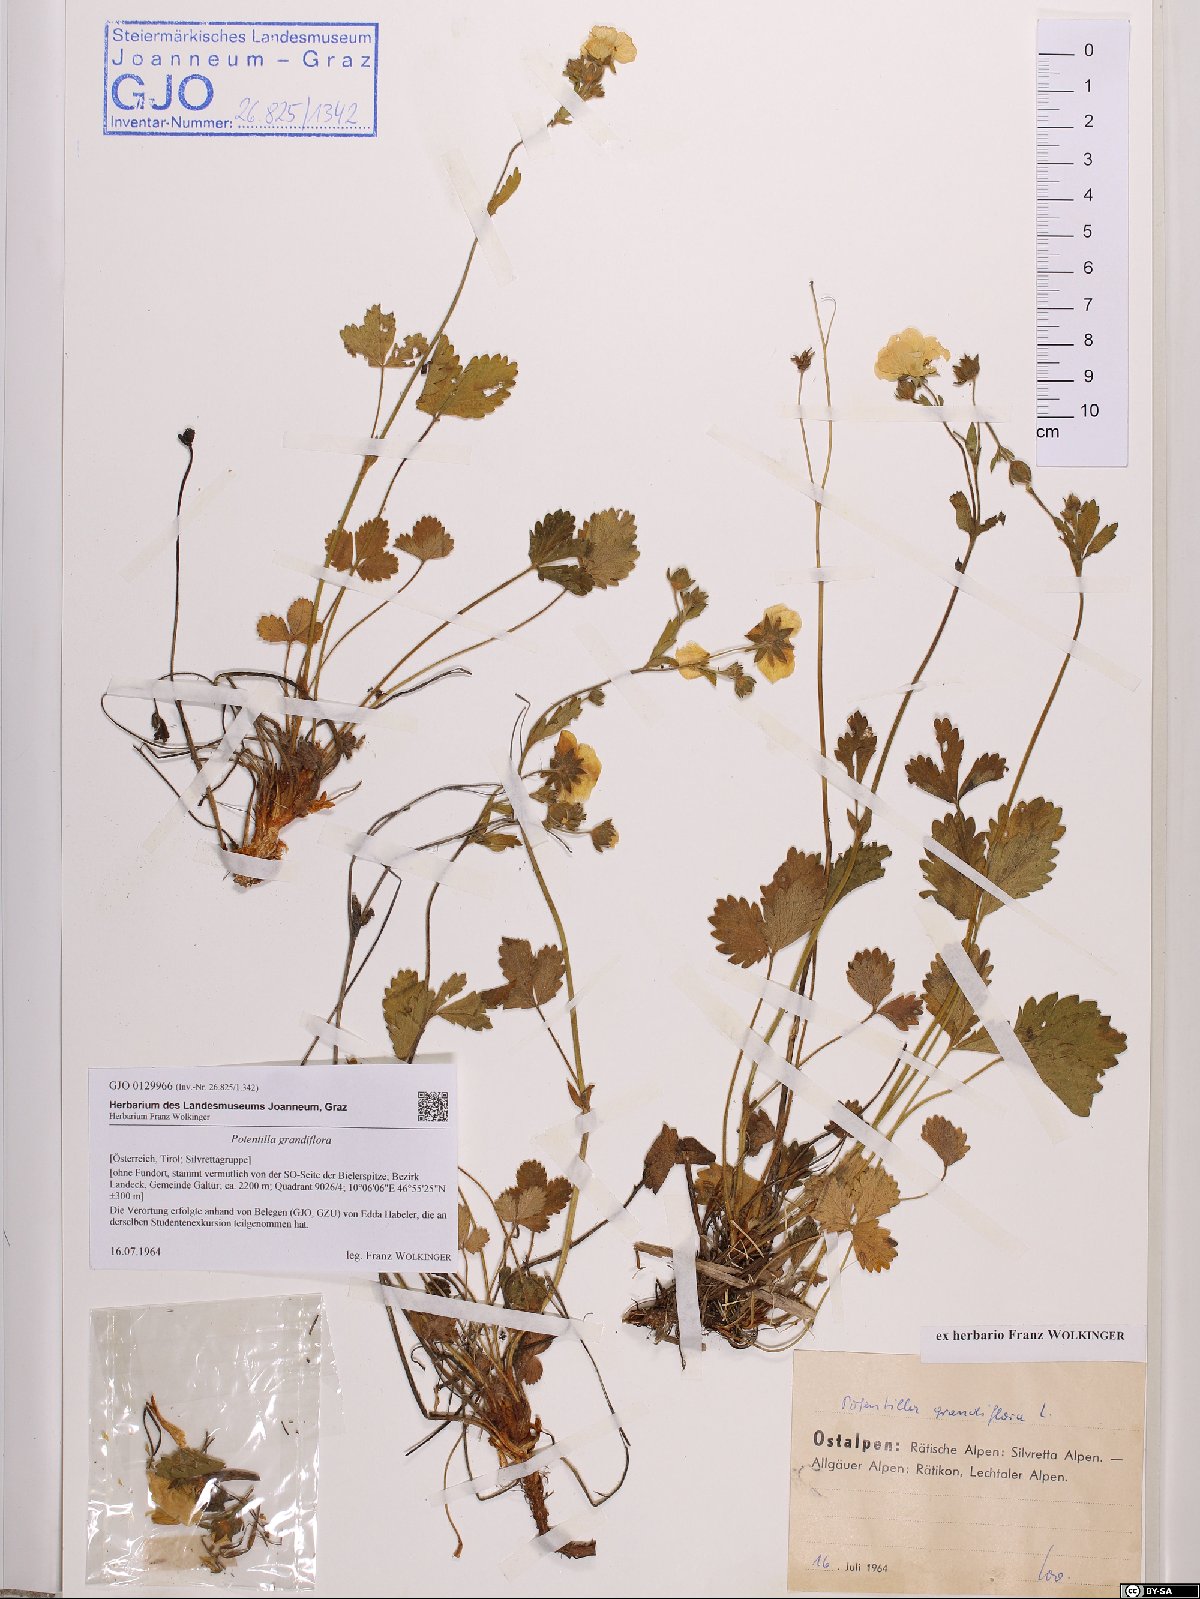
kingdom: Plantae
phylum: Tracheophyta
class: Magnoliopsida
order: Rosales
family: Rosaceae
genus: Potentilla
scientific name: Potentilla grandiflora
